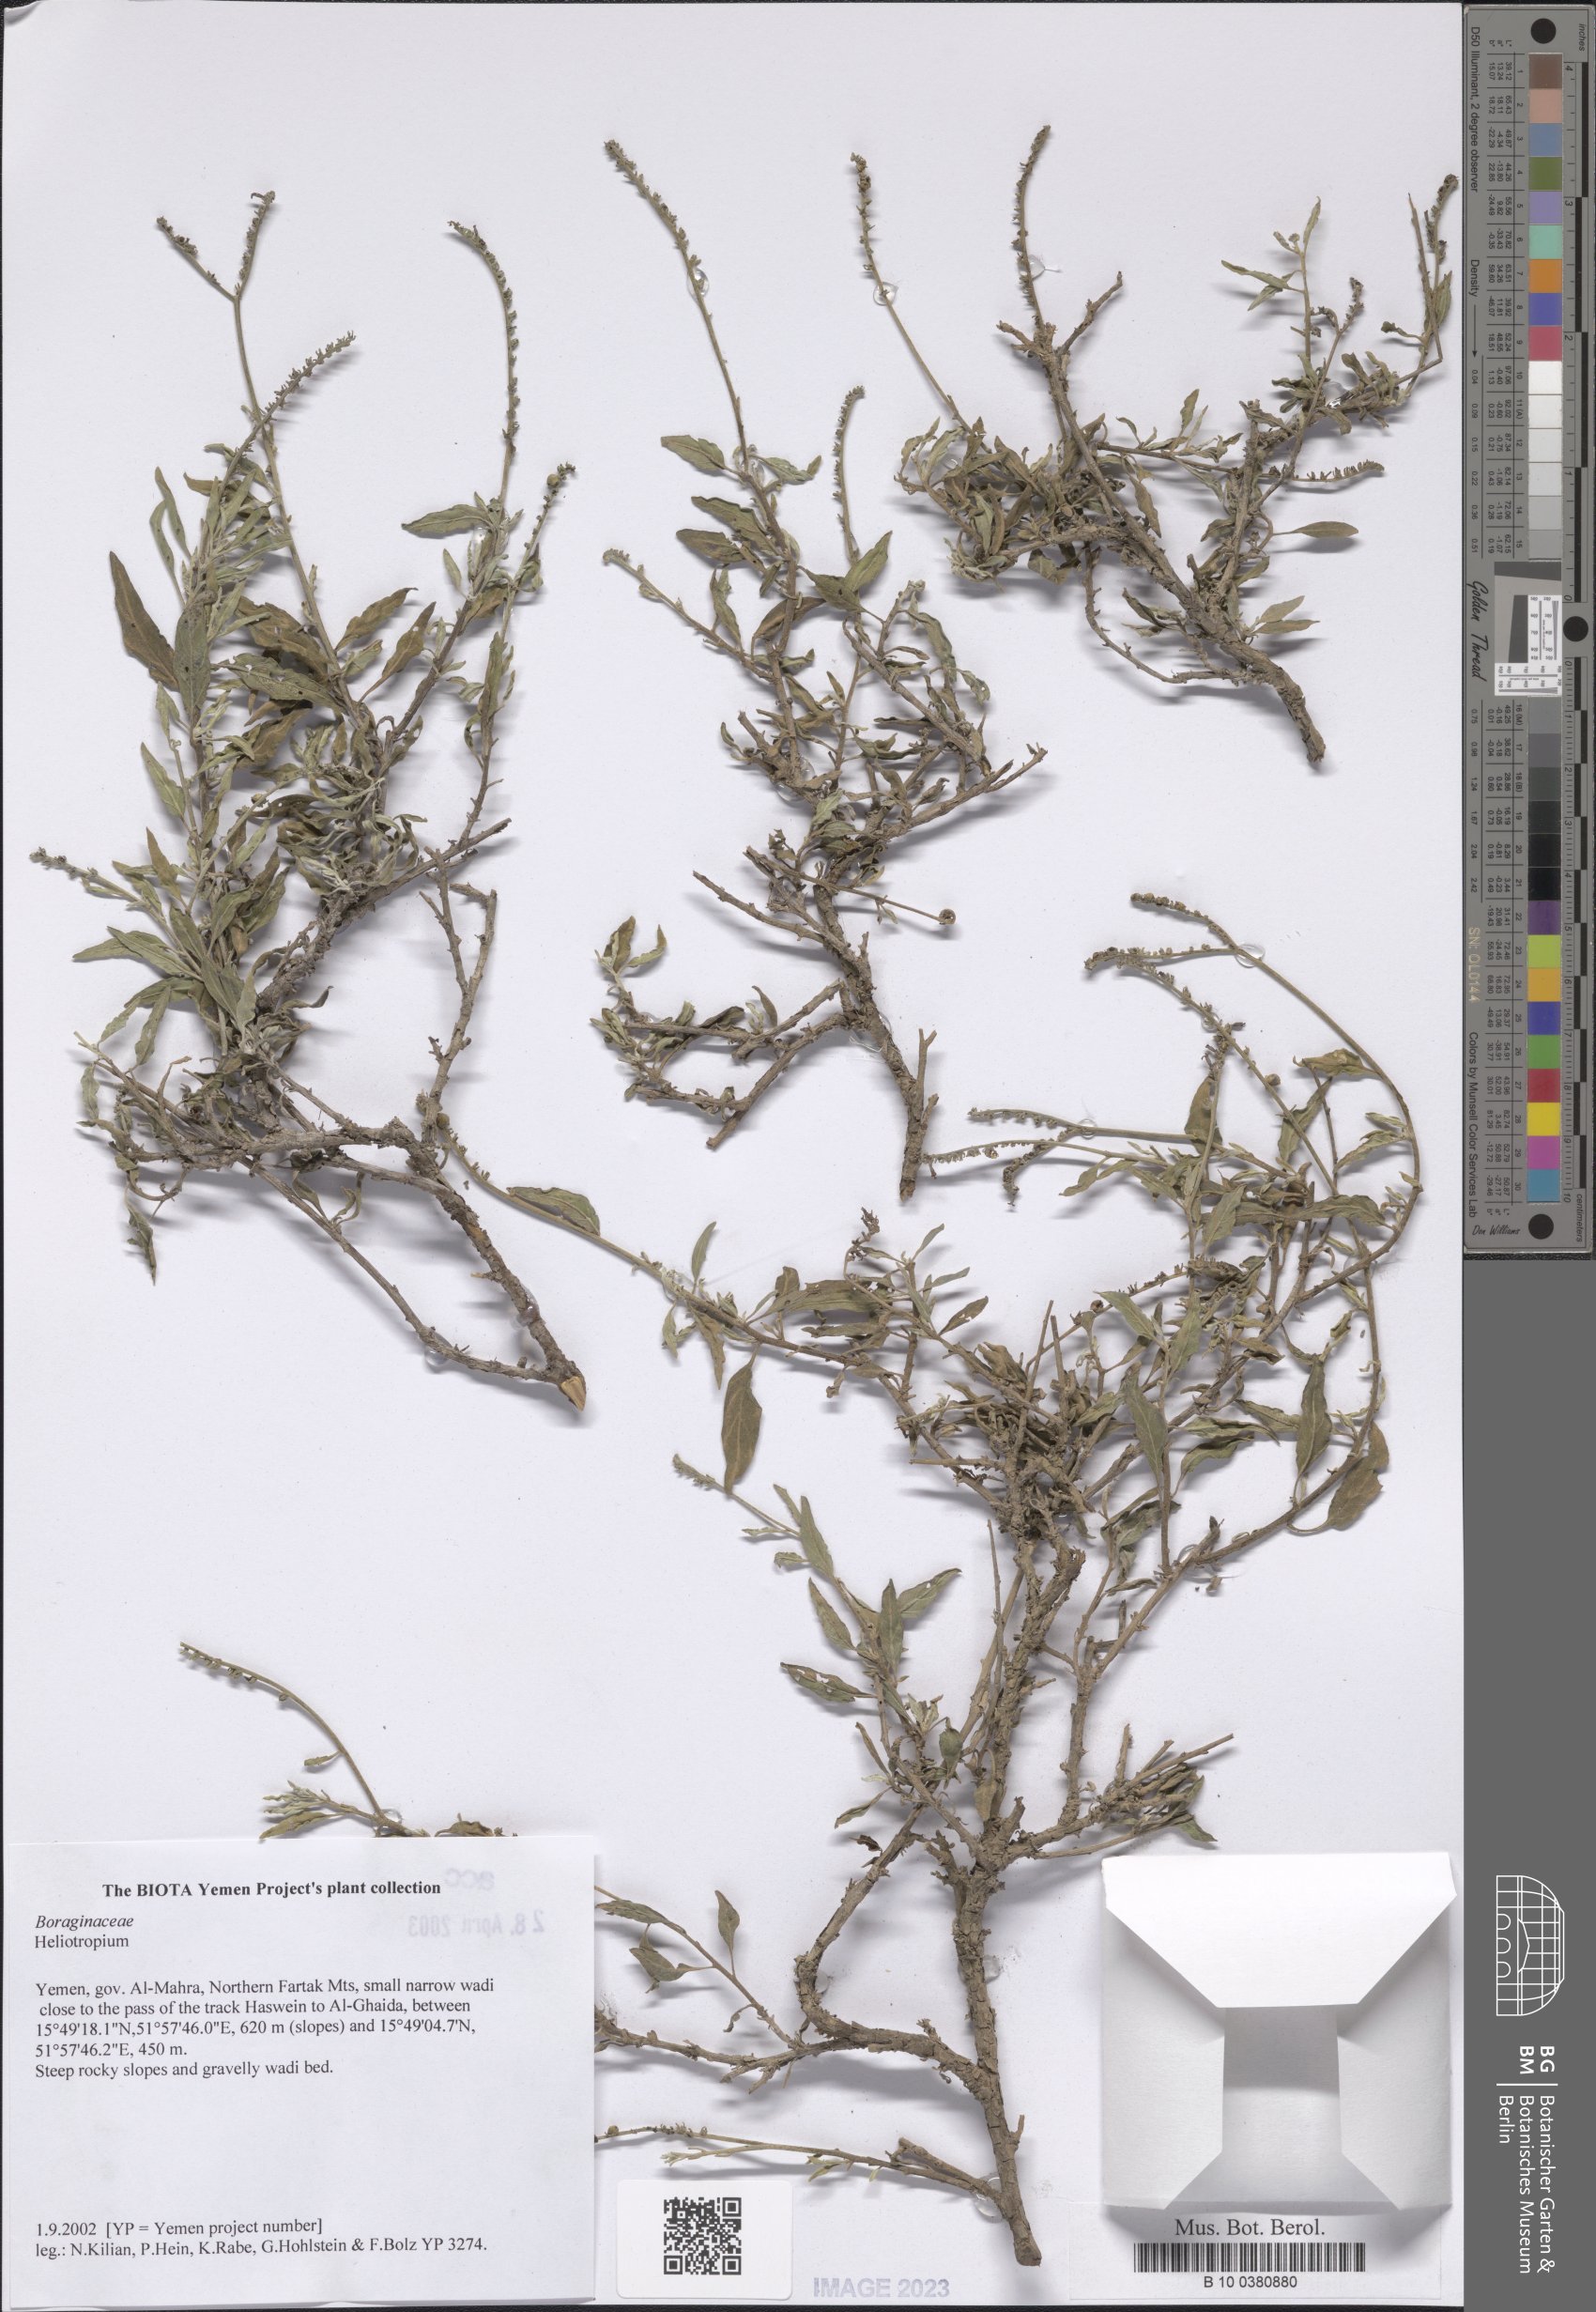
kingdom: Plantae
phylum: Tracheophyta
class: Magnoliopsida
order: Boraginales
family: Heliotropiaceae
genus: Heliotropium
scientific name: Heliotropium
